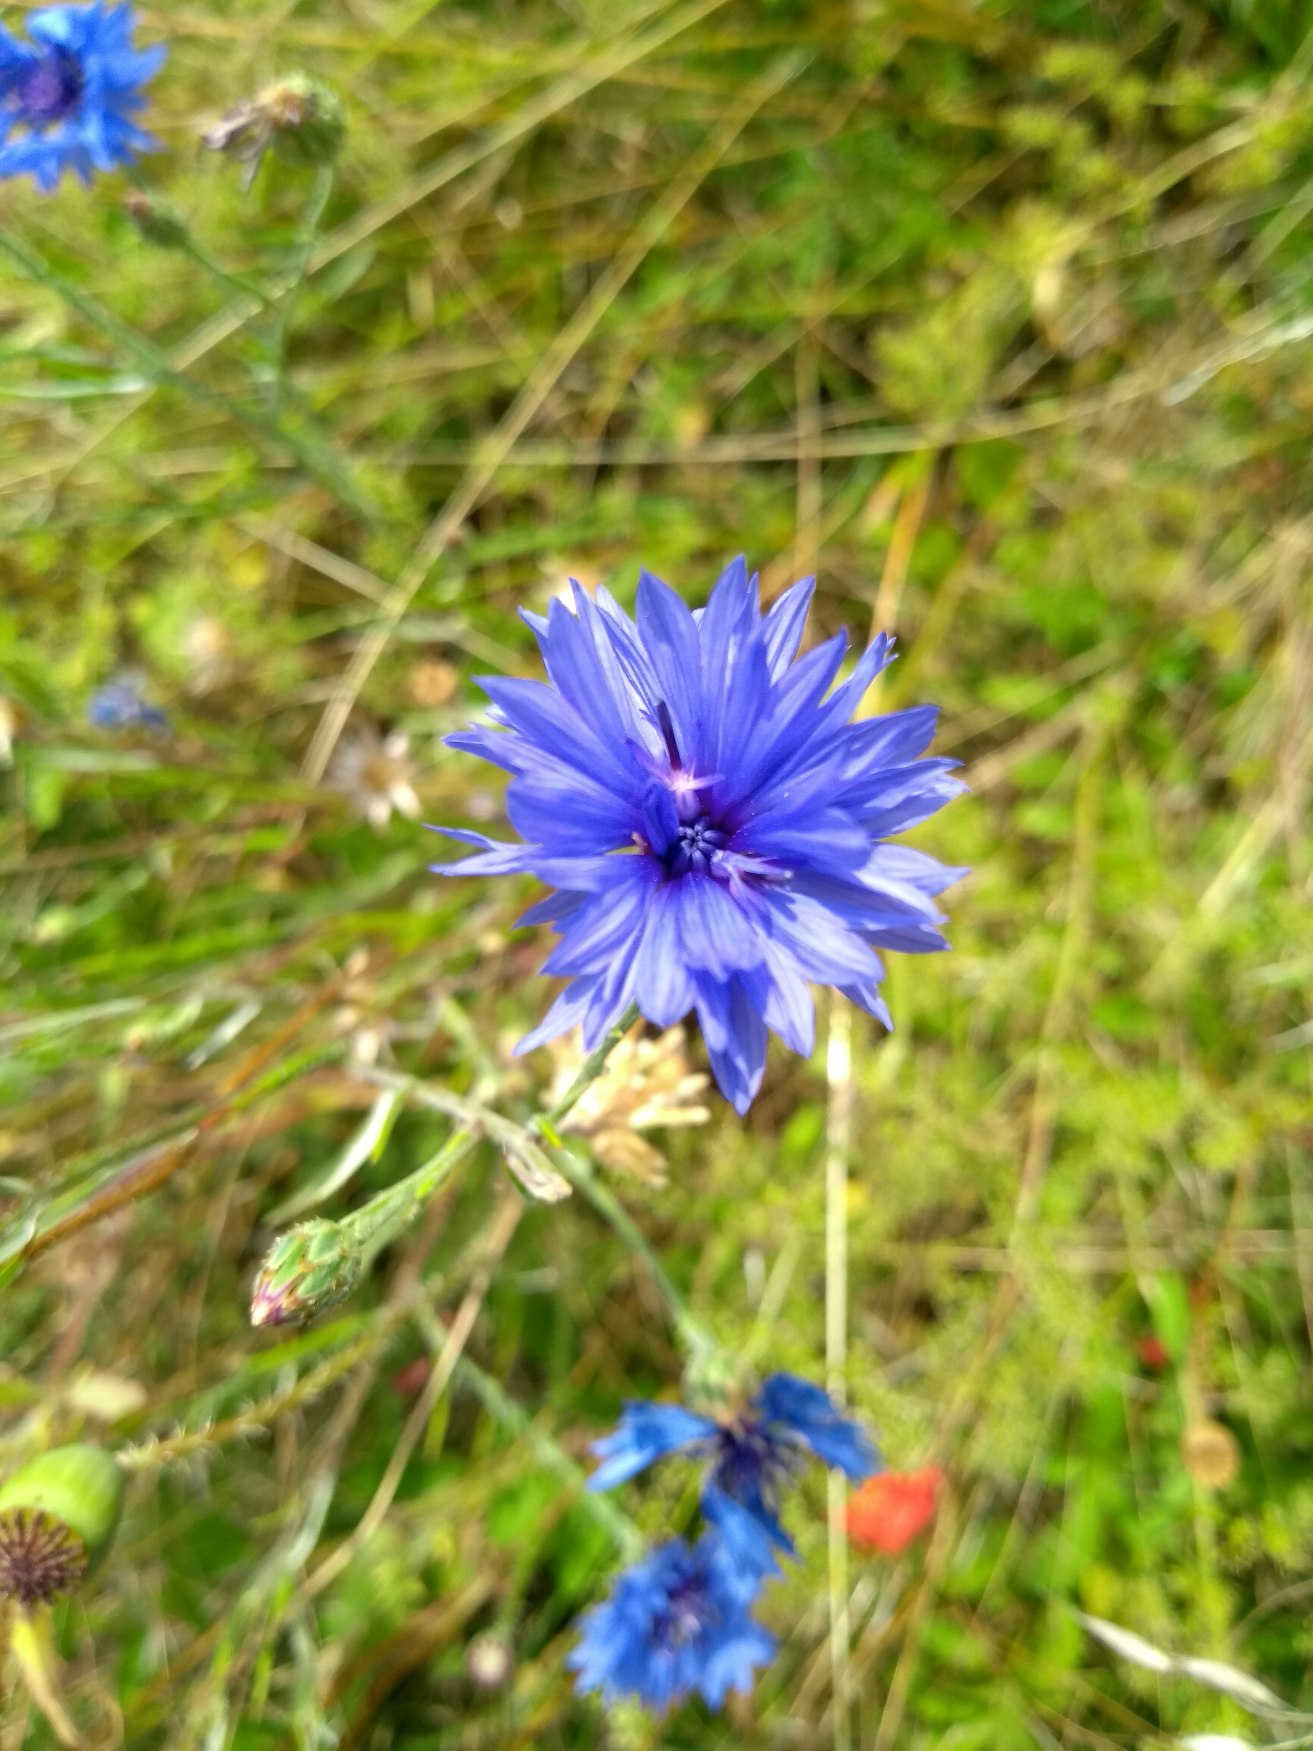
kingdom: Plantae
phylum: Tracheophyta
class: Magnoliopsida
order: Asterales
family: Asteraceae
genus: Centaurea
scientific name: Centaurea cyanus
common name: Kornblomst
